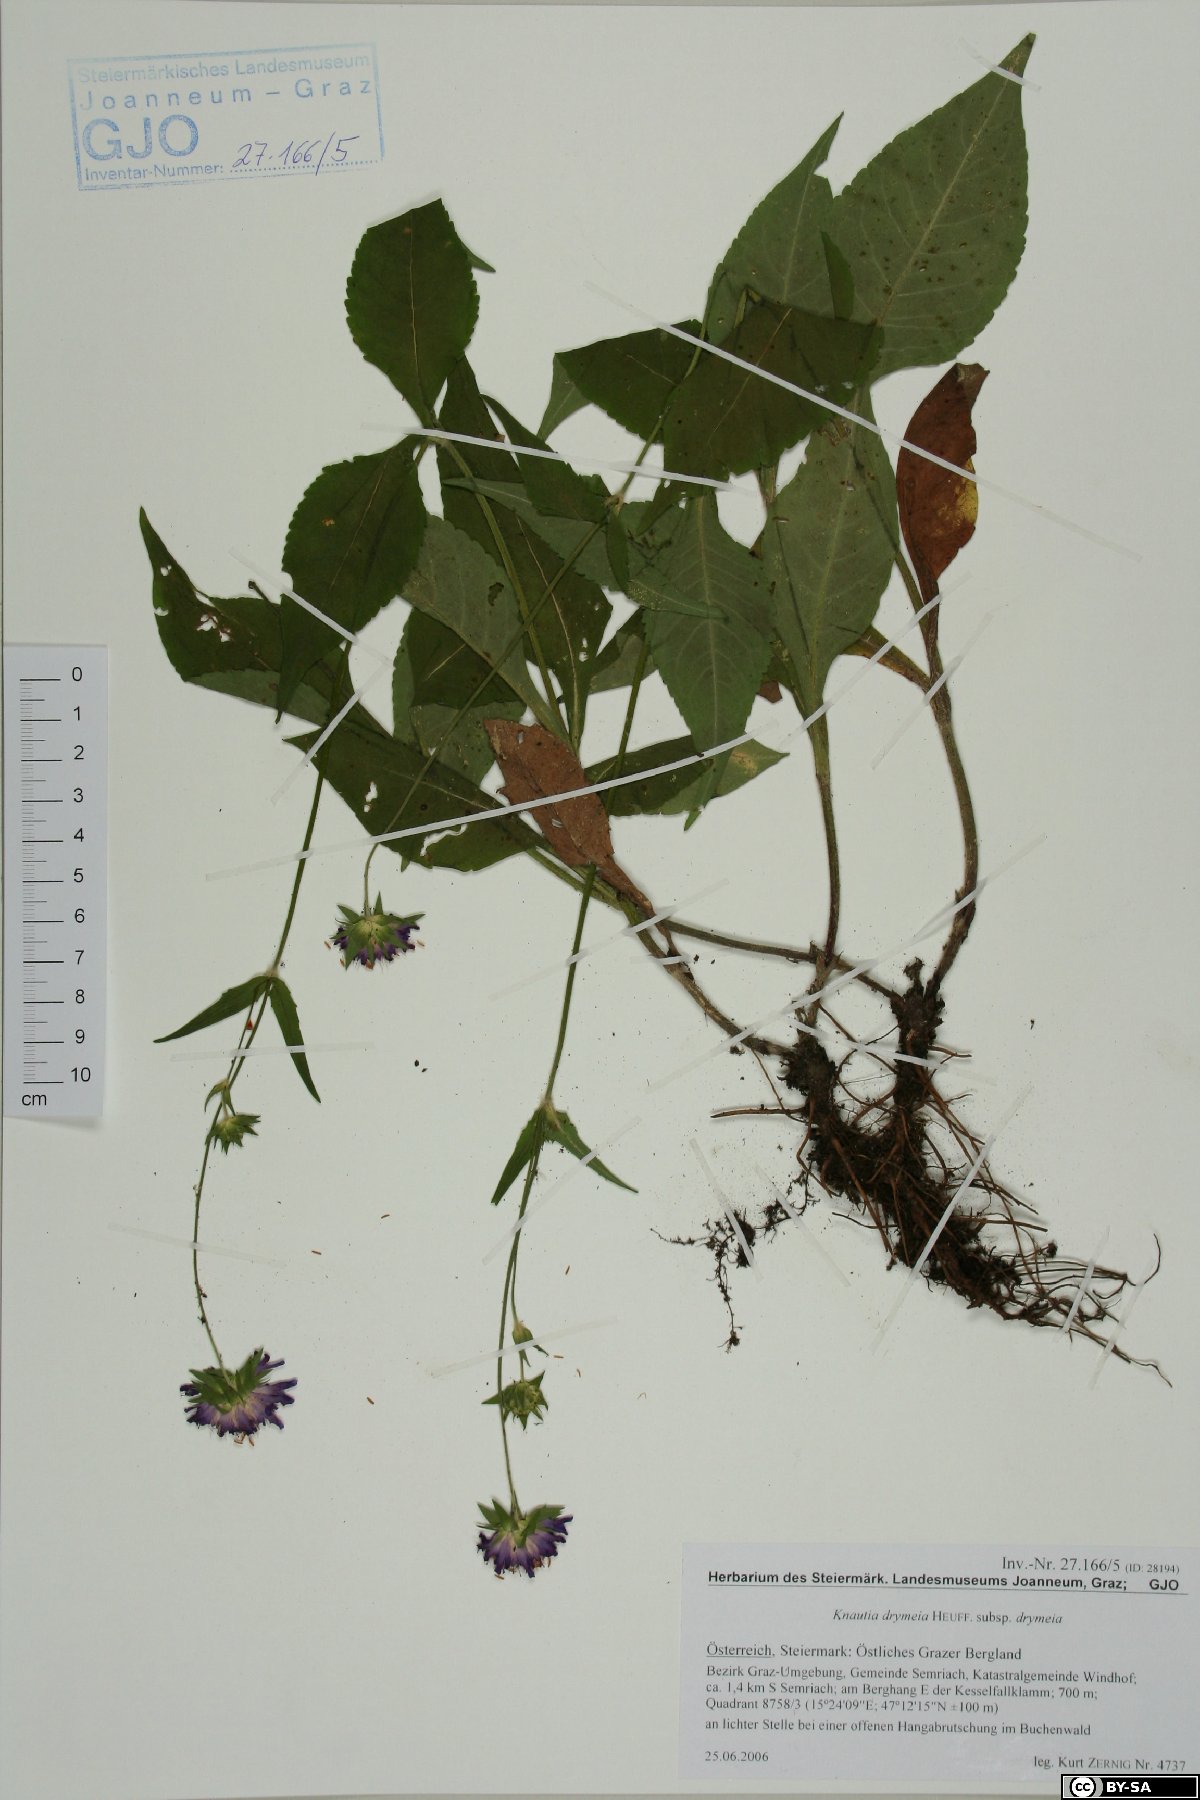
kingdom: Plantae
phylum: Tracheophyta
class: Magnoliopsida
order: Dipsacales
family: Caprifoliaceae
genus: Knautia
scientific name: Knautia drymeia
